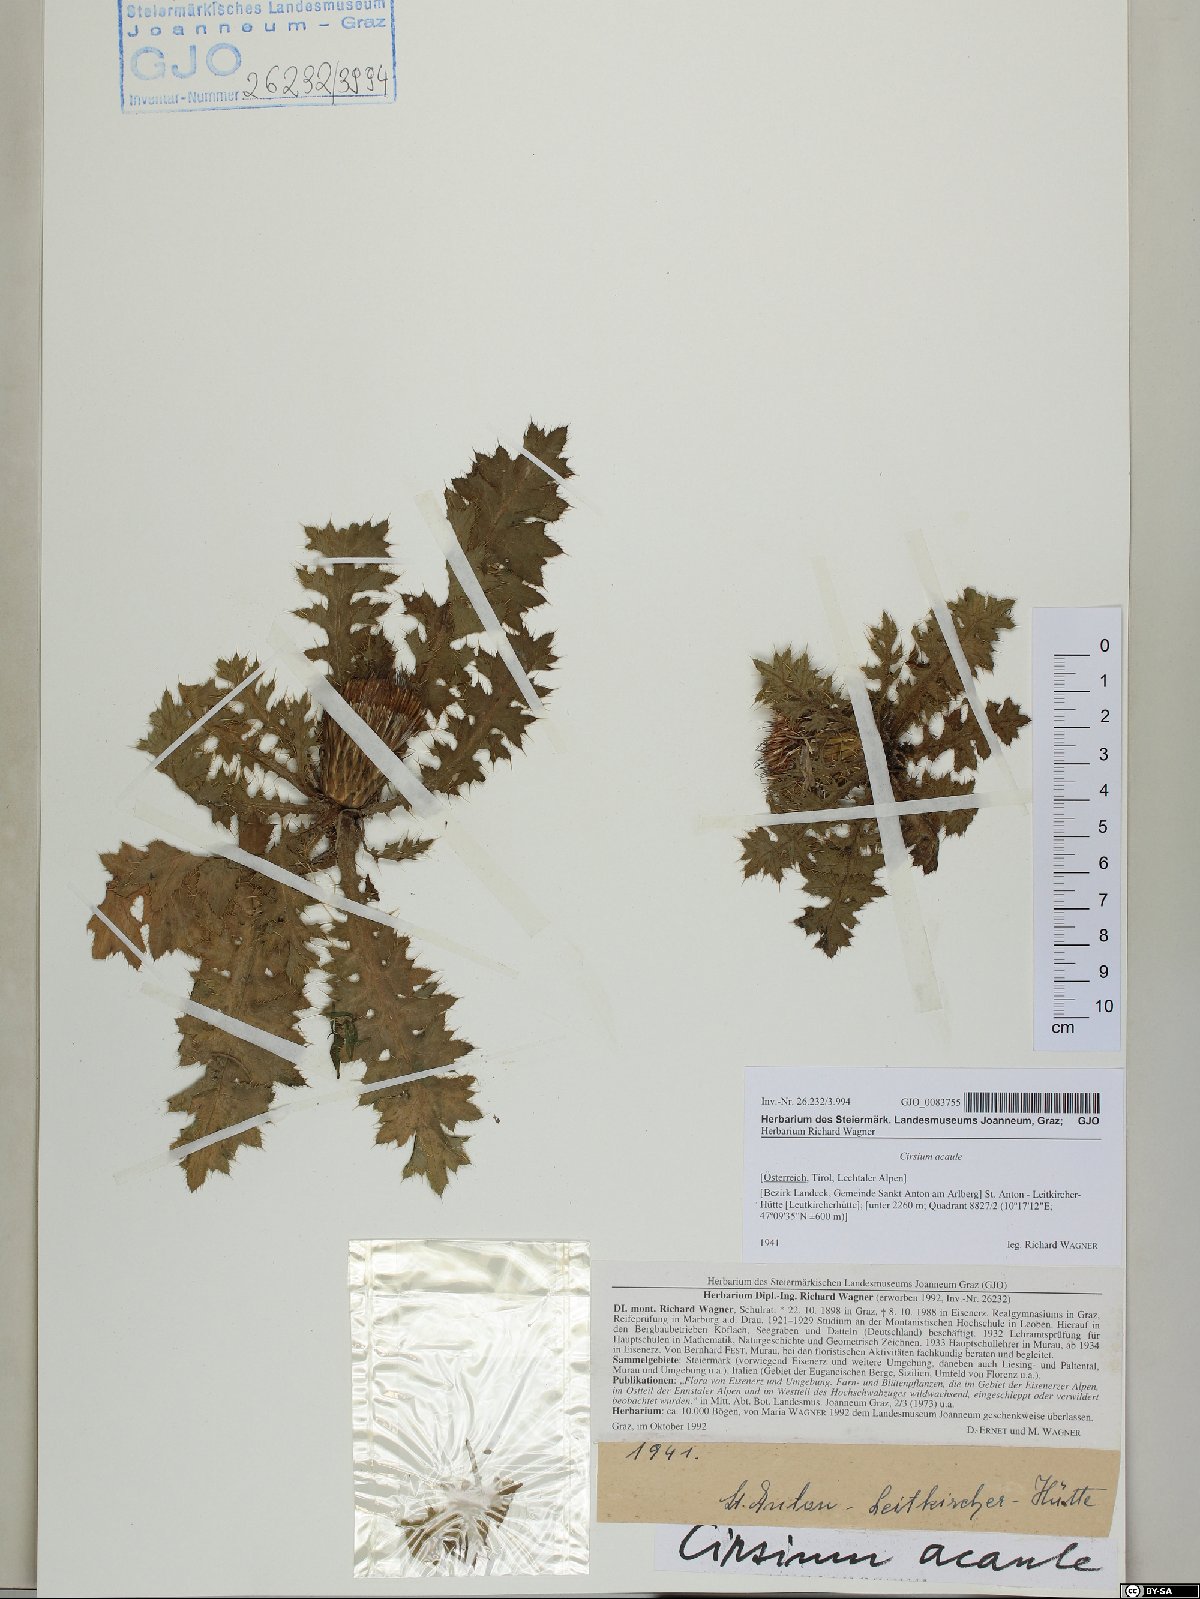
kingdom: Plantae
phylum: Tracheophyta
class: Magnoliopsida
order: Asterales
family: Asteraceae
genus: Cirsium
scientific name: Cirsium acaulon
